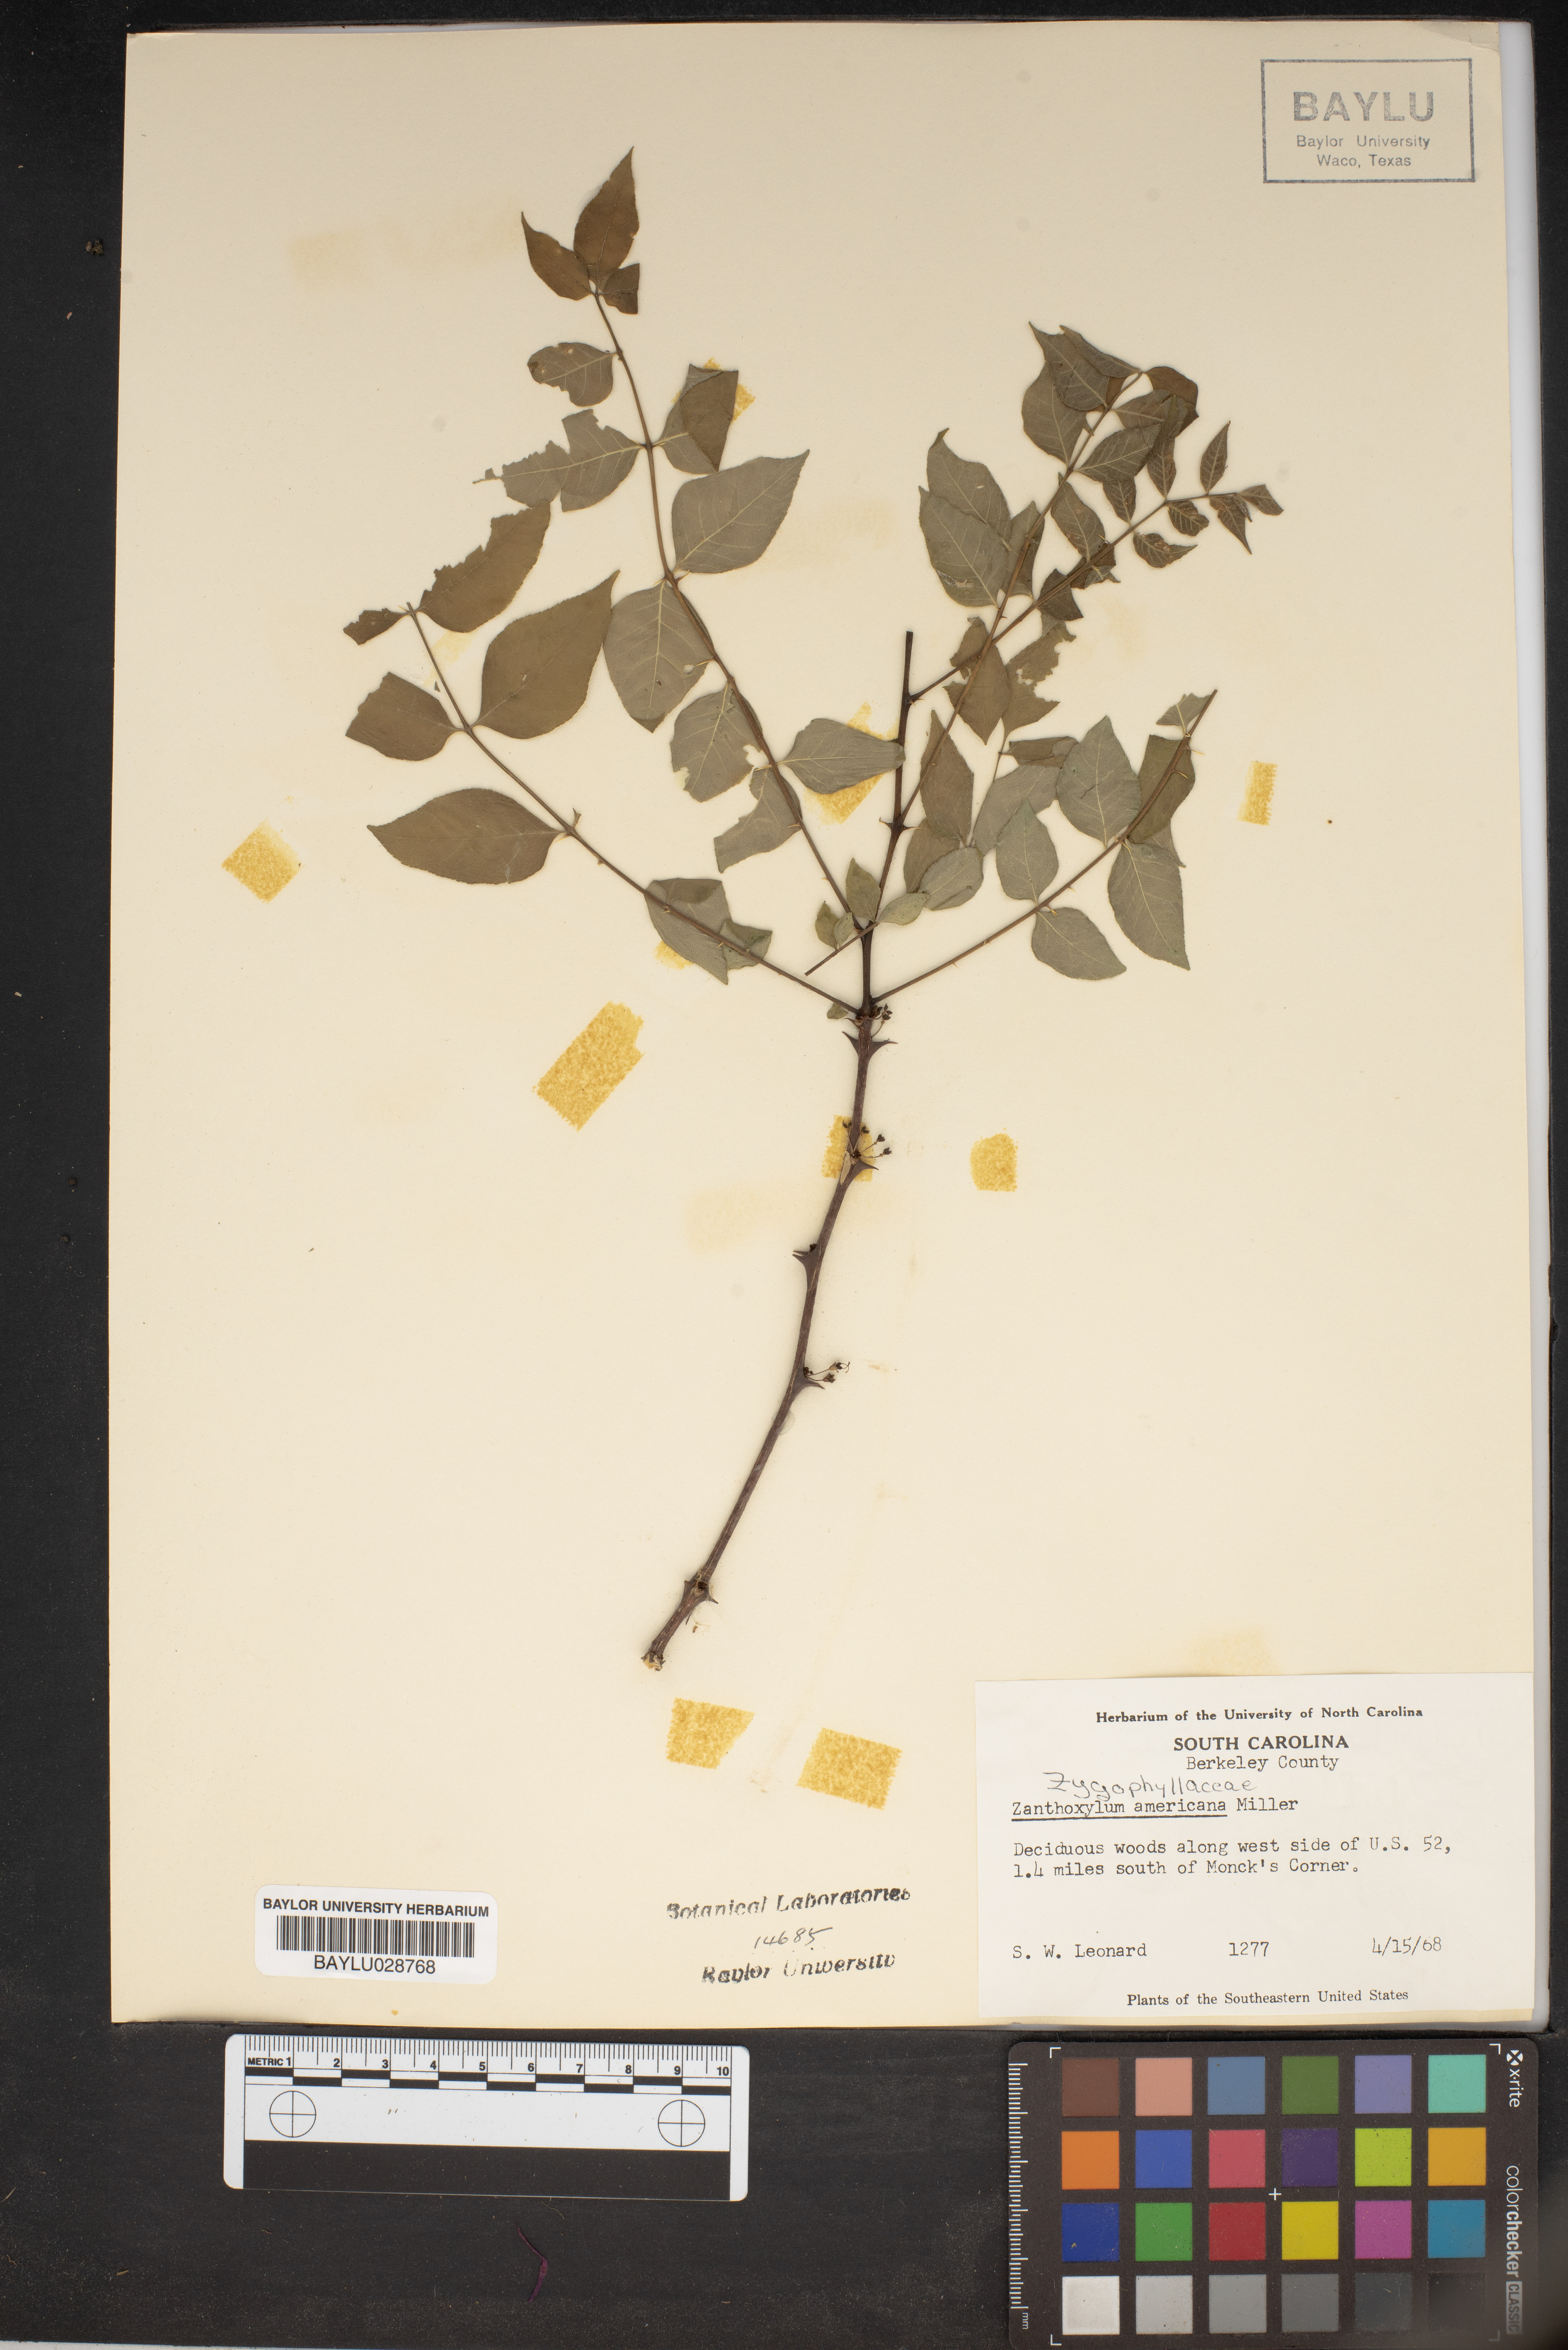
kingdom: Plantae
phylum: Tracheophyta
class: Magnoliopsida
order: Sapindales
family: Rutaceae
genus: Zanthoxylum
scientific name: Zanthoxylum americanum
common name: Northern prickly-ash
